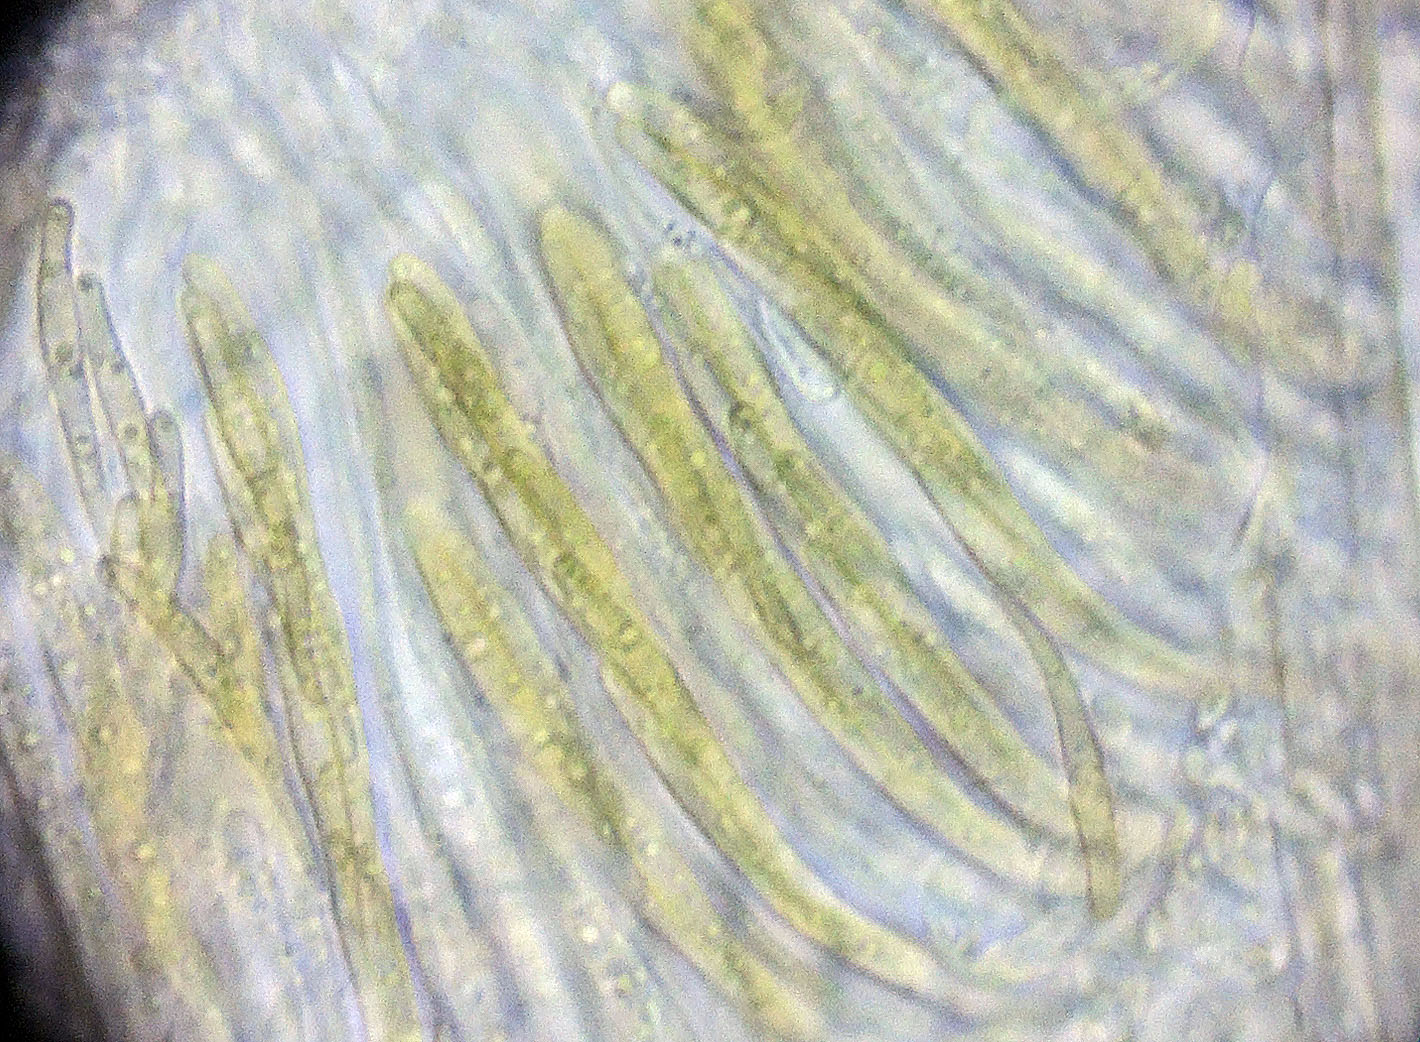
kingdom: Fungi
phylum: Ascomycota
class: Dothideomycetes
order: Pleosporales
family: Leptosphaeriaceae
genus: Leptosphaeria
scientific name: Leptosphaeria scitula
